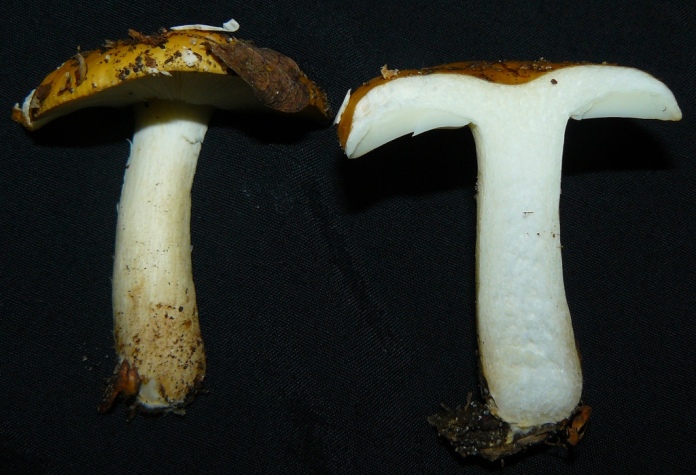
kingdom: Fungi
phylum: Basidiomycota
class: Agaricomycetes
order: Russulales
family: Russulaceae
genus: Russula
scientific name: Russula ochroleuca
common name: okkergul skørhat
